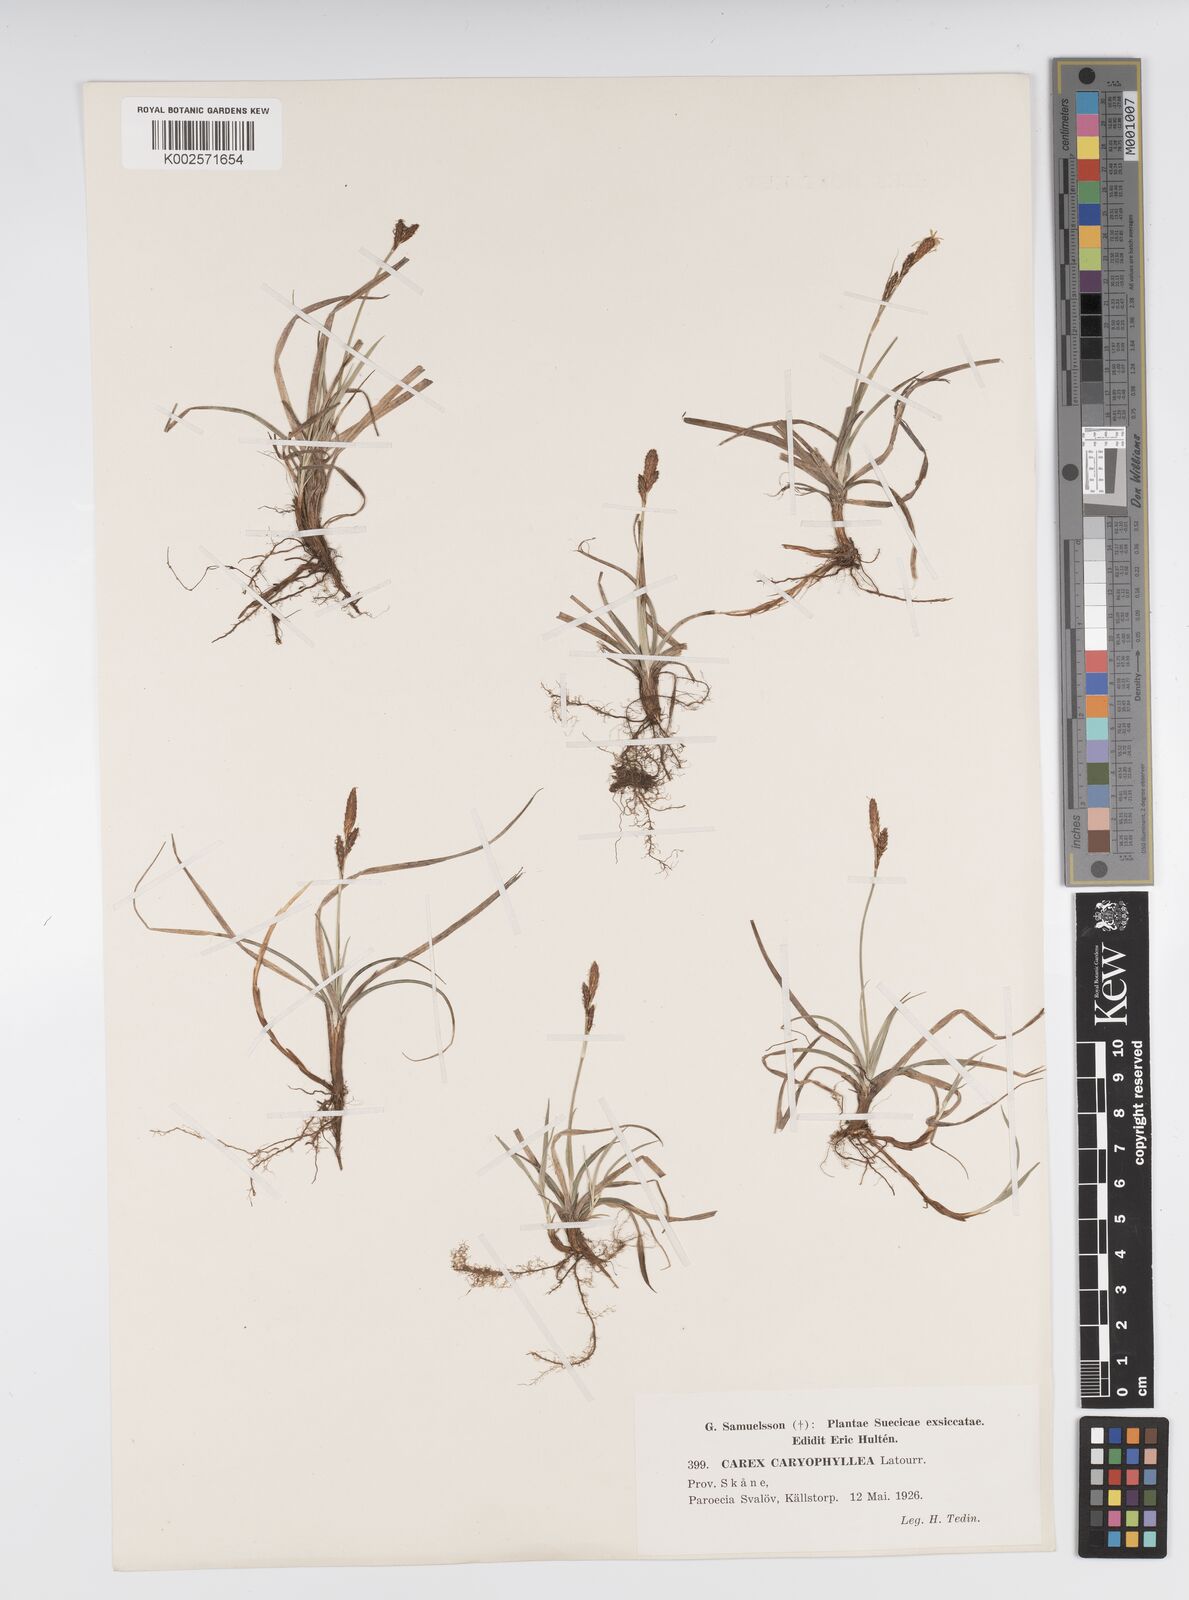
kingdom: Plantae
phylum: Tracheophyta
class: Liliopsida
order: Poales
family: Cyperaceae
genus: Carex
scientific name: Carex caryophyllea
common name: Spring sedge
